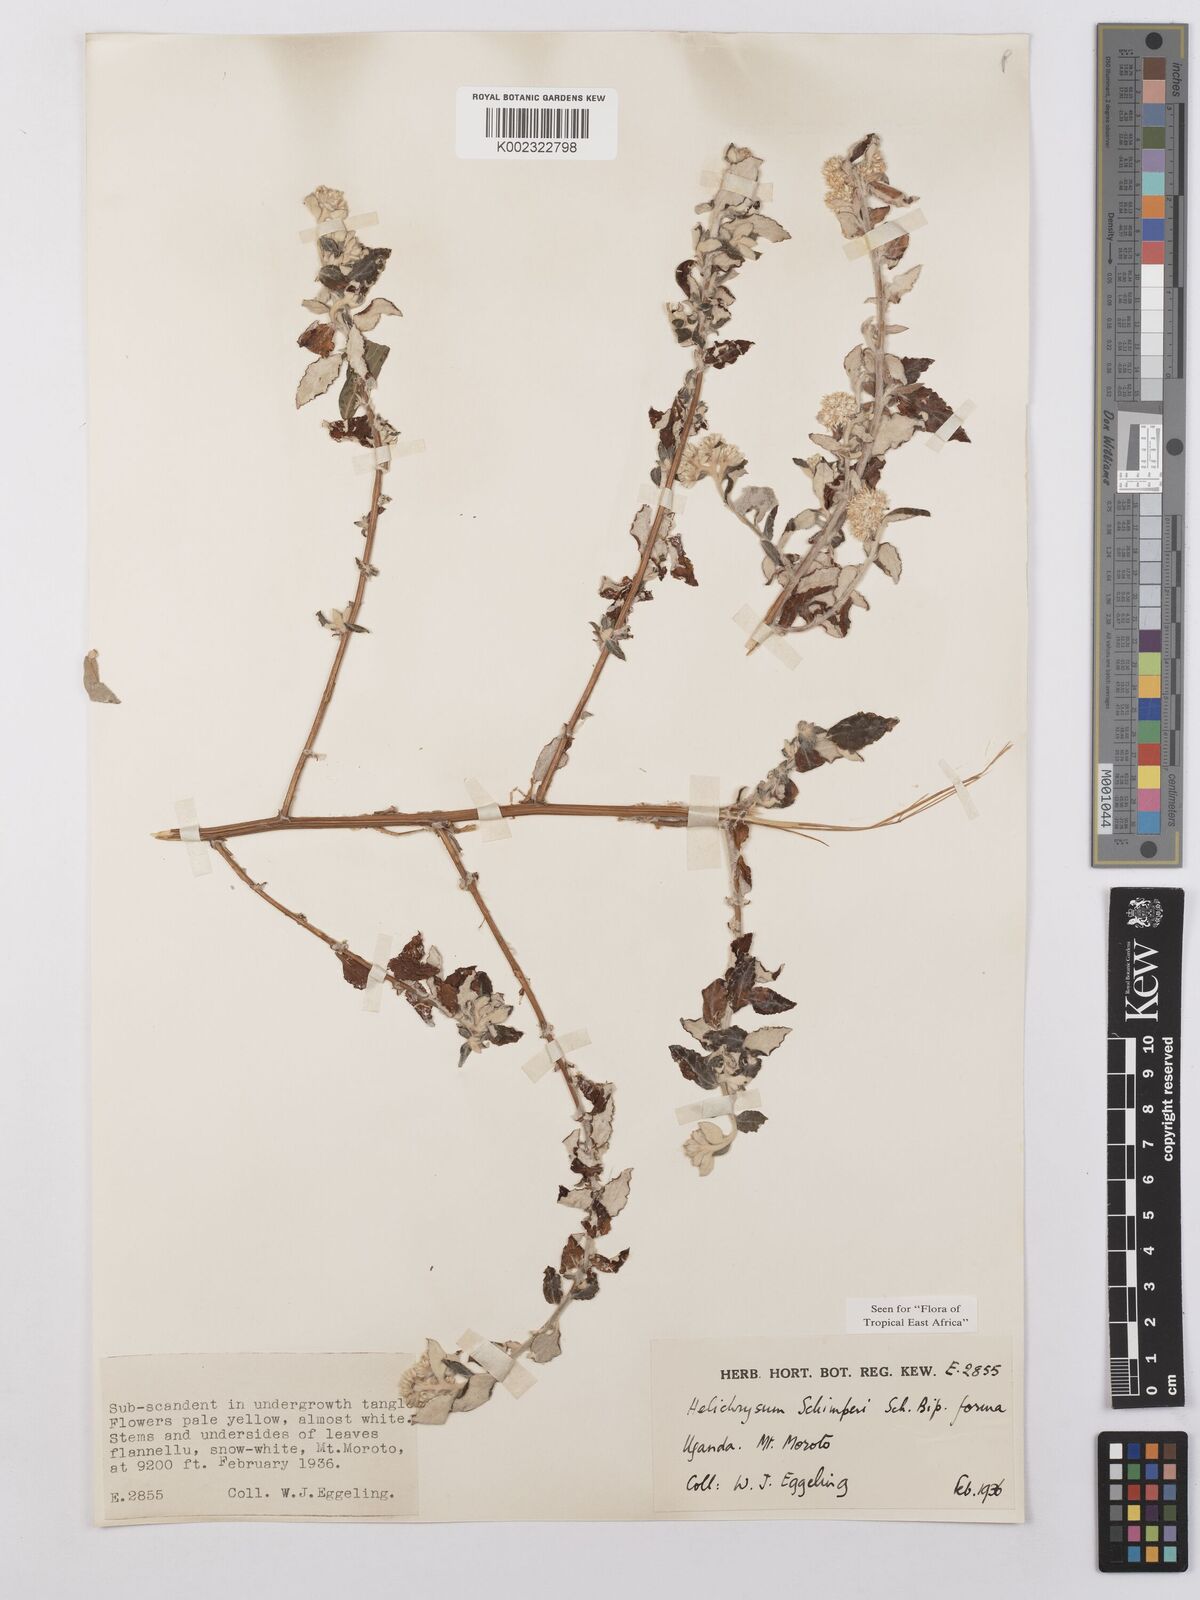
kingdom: Plantae
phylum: Tracheophyta
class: Magnoliopsida
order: Asterales
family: Asteraceae
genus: Helichrysum
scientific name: Helichrysum schimperi
